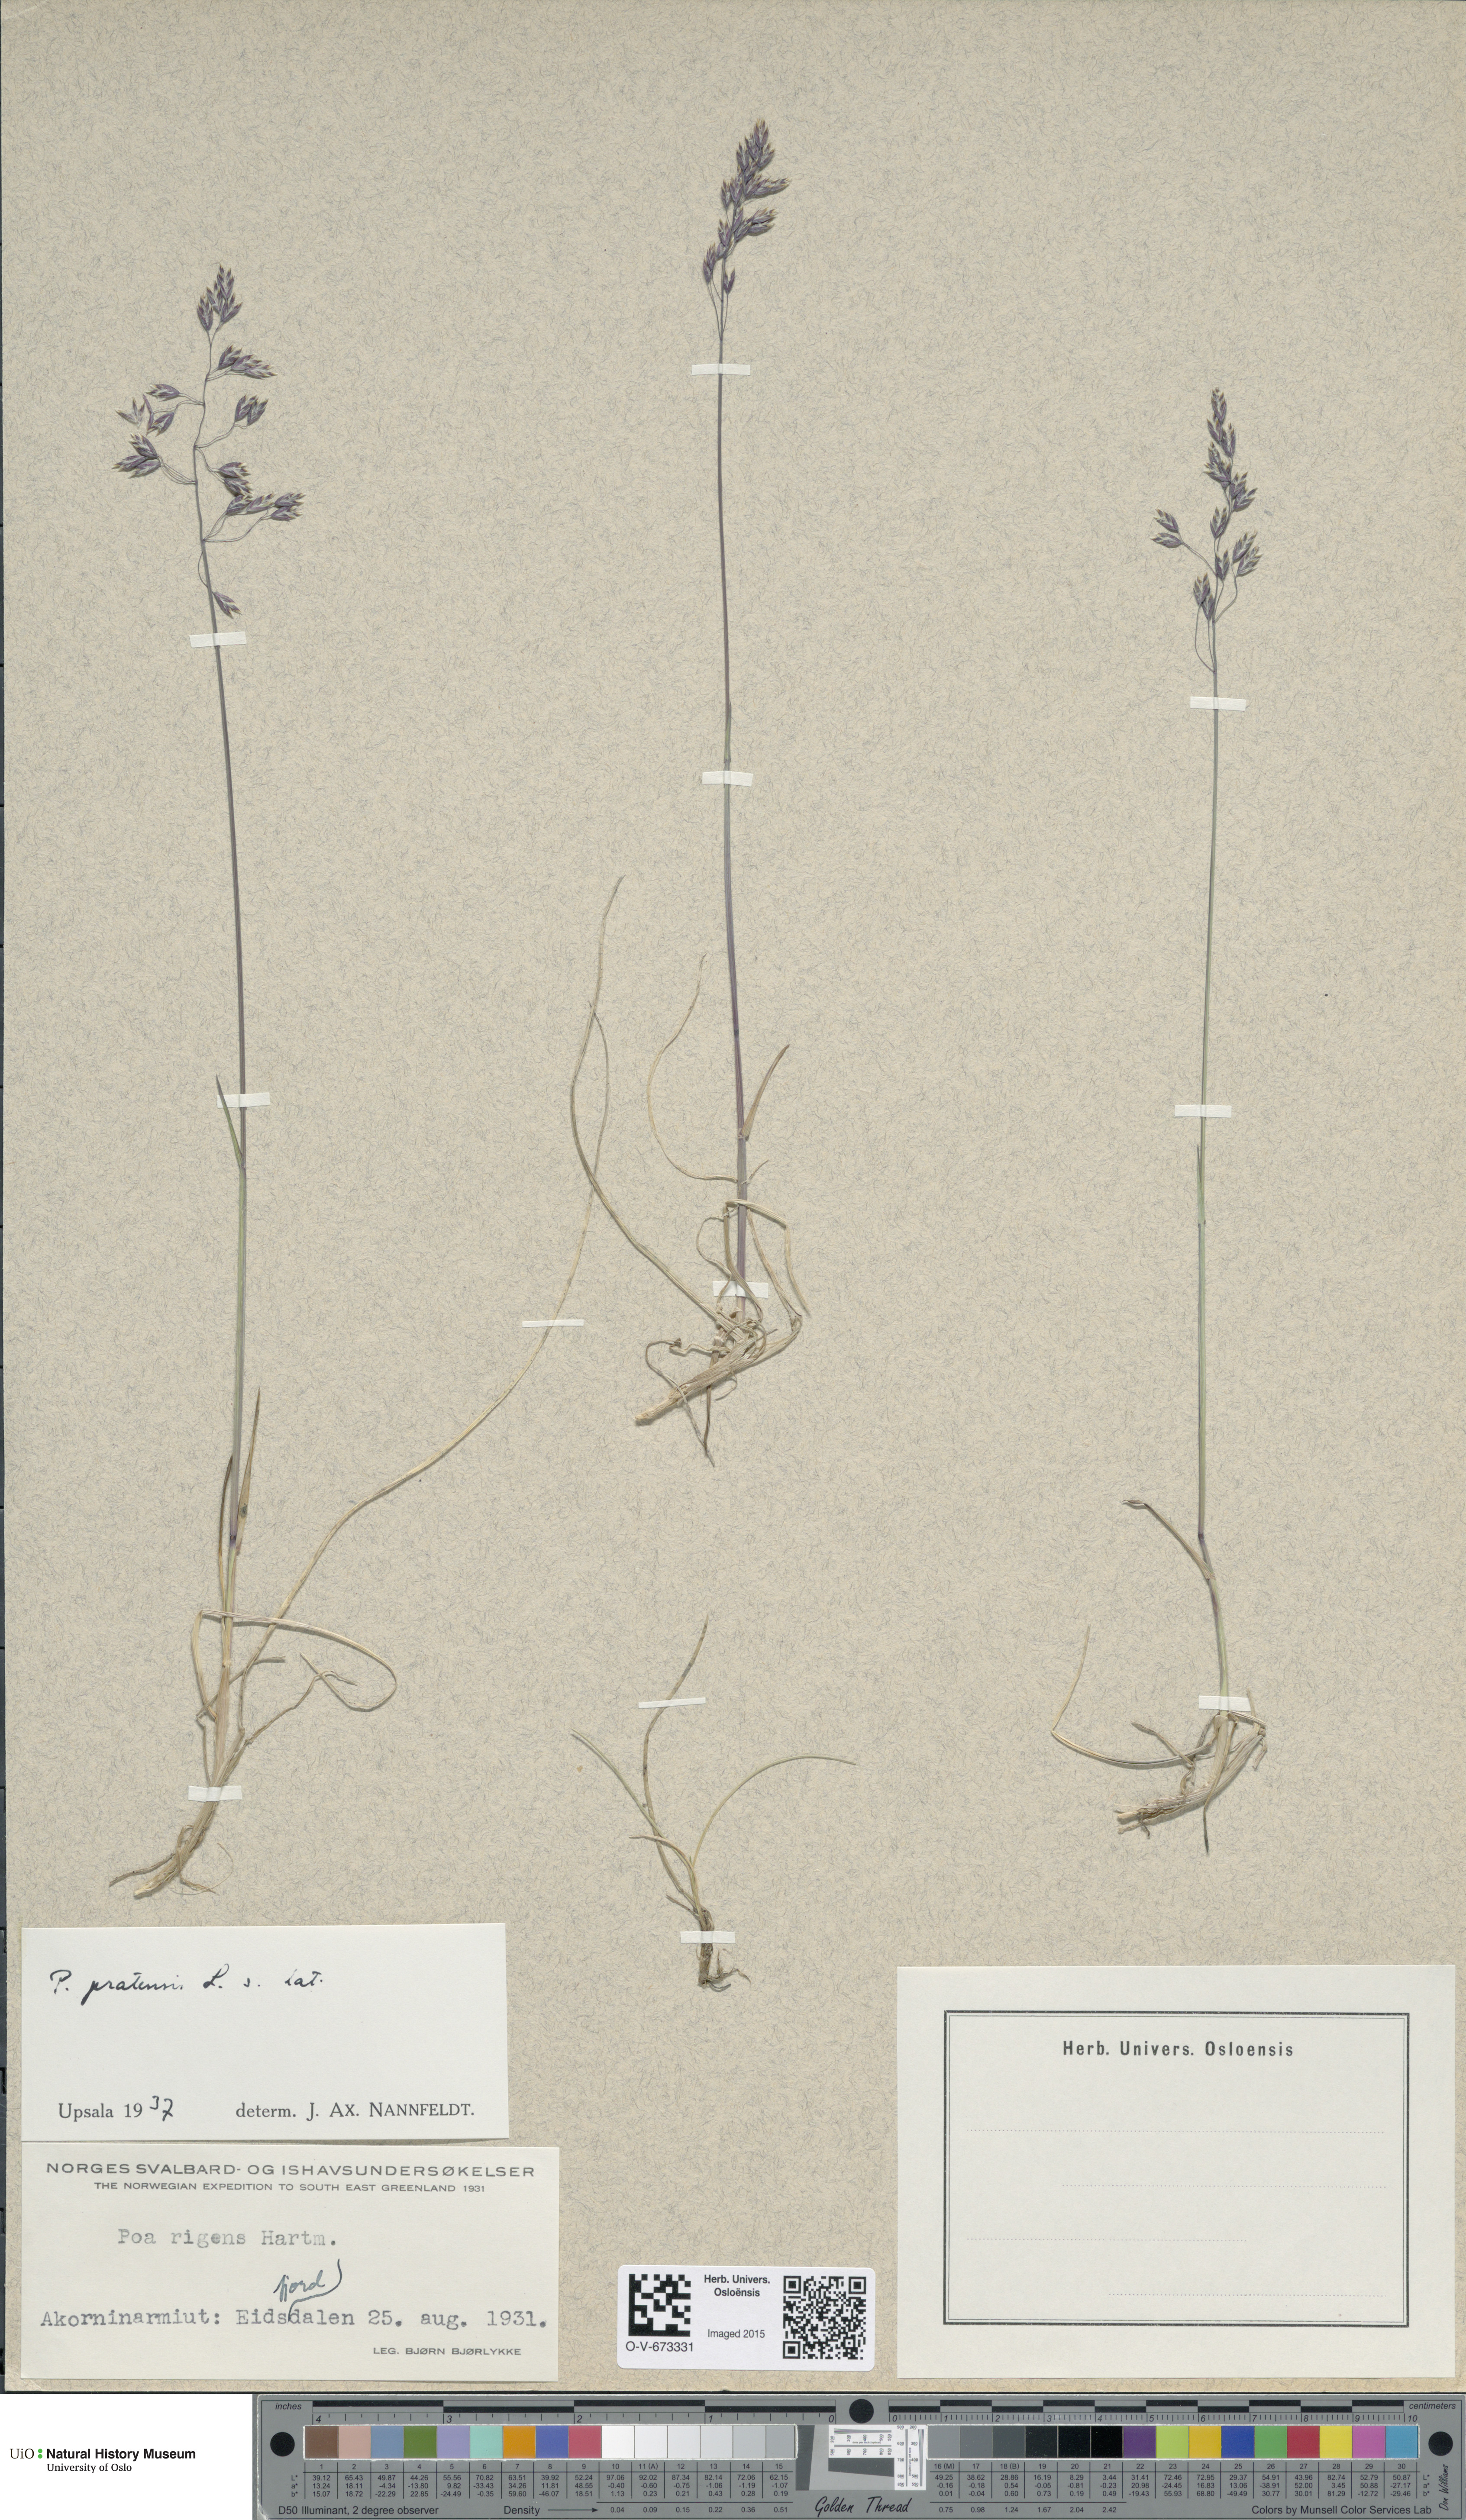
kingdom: Plantae
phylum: Tracheophyta
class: Liliopsida
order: Poales
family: Poaceae
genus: Poa
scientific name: Poa pratensis
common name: Kentucky bluegrass
